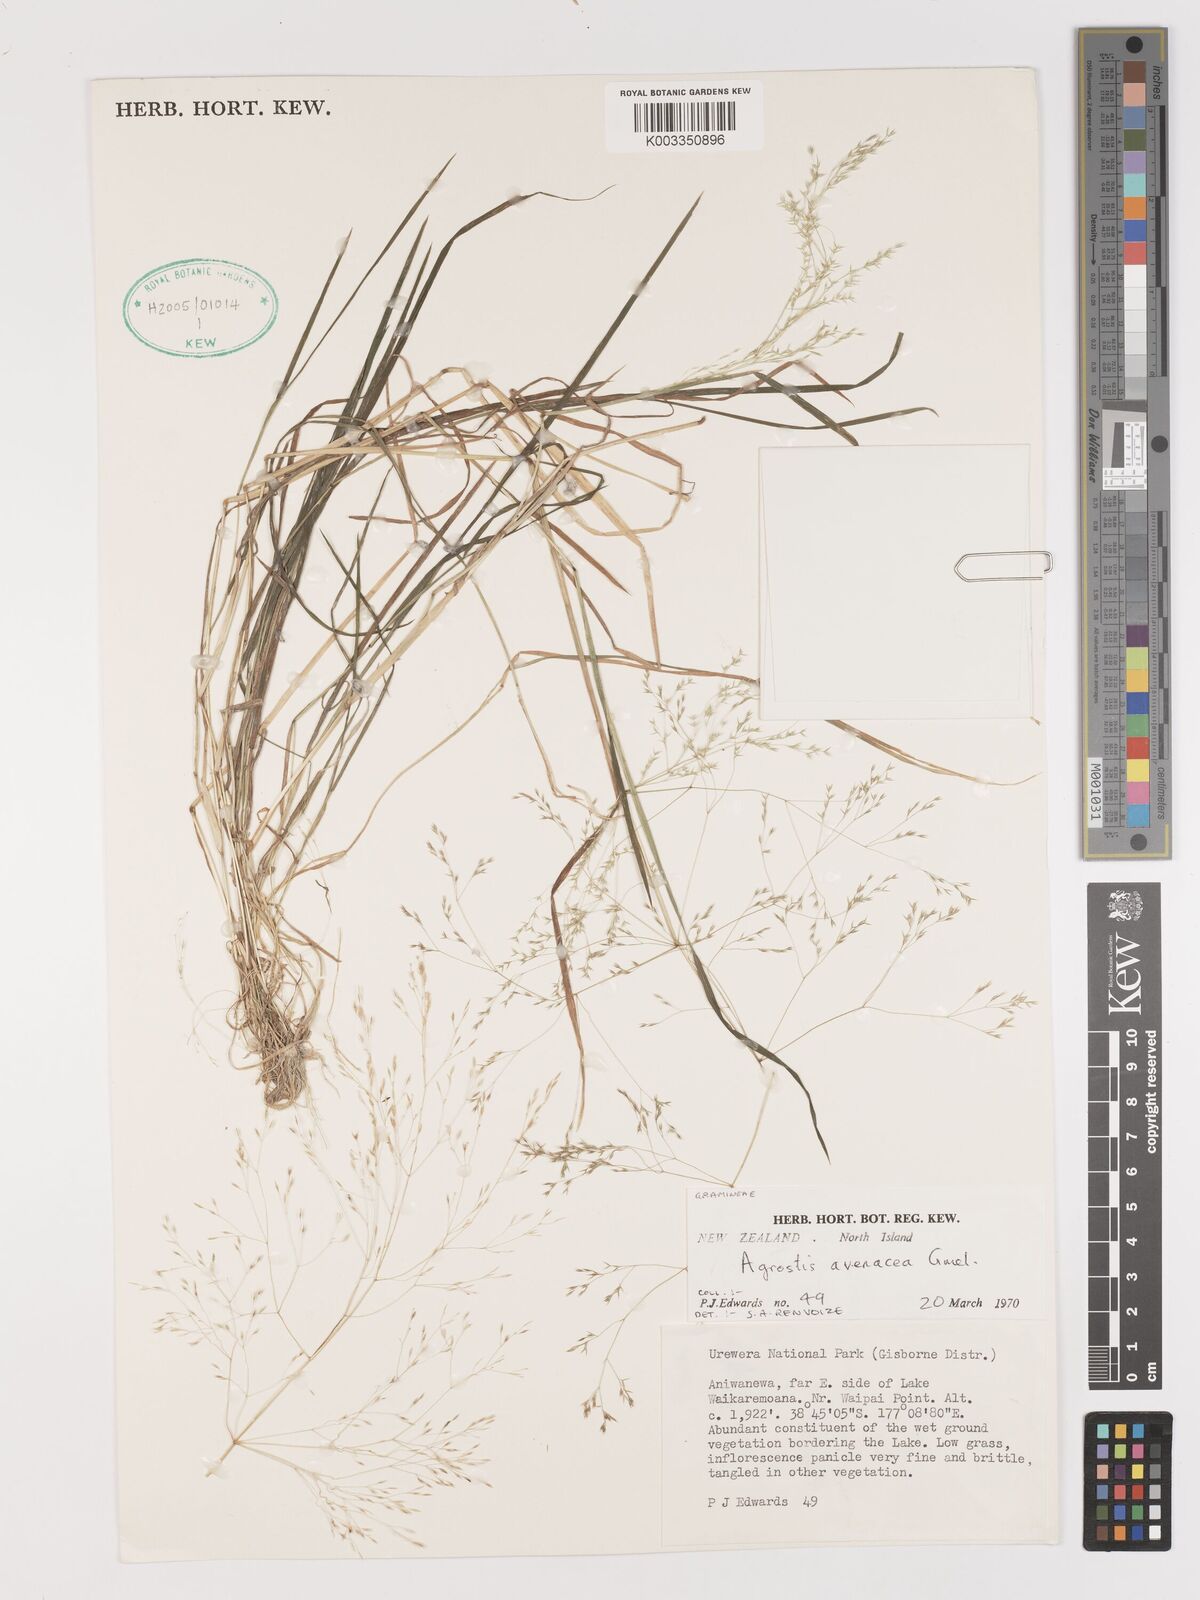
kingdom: Plantae
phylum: Tracheophyta
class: Liliopsida
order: Poales
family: Poaceae
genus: Lachnagrostis
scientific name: Lachnagrostis filiformis
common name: Bentgrass
